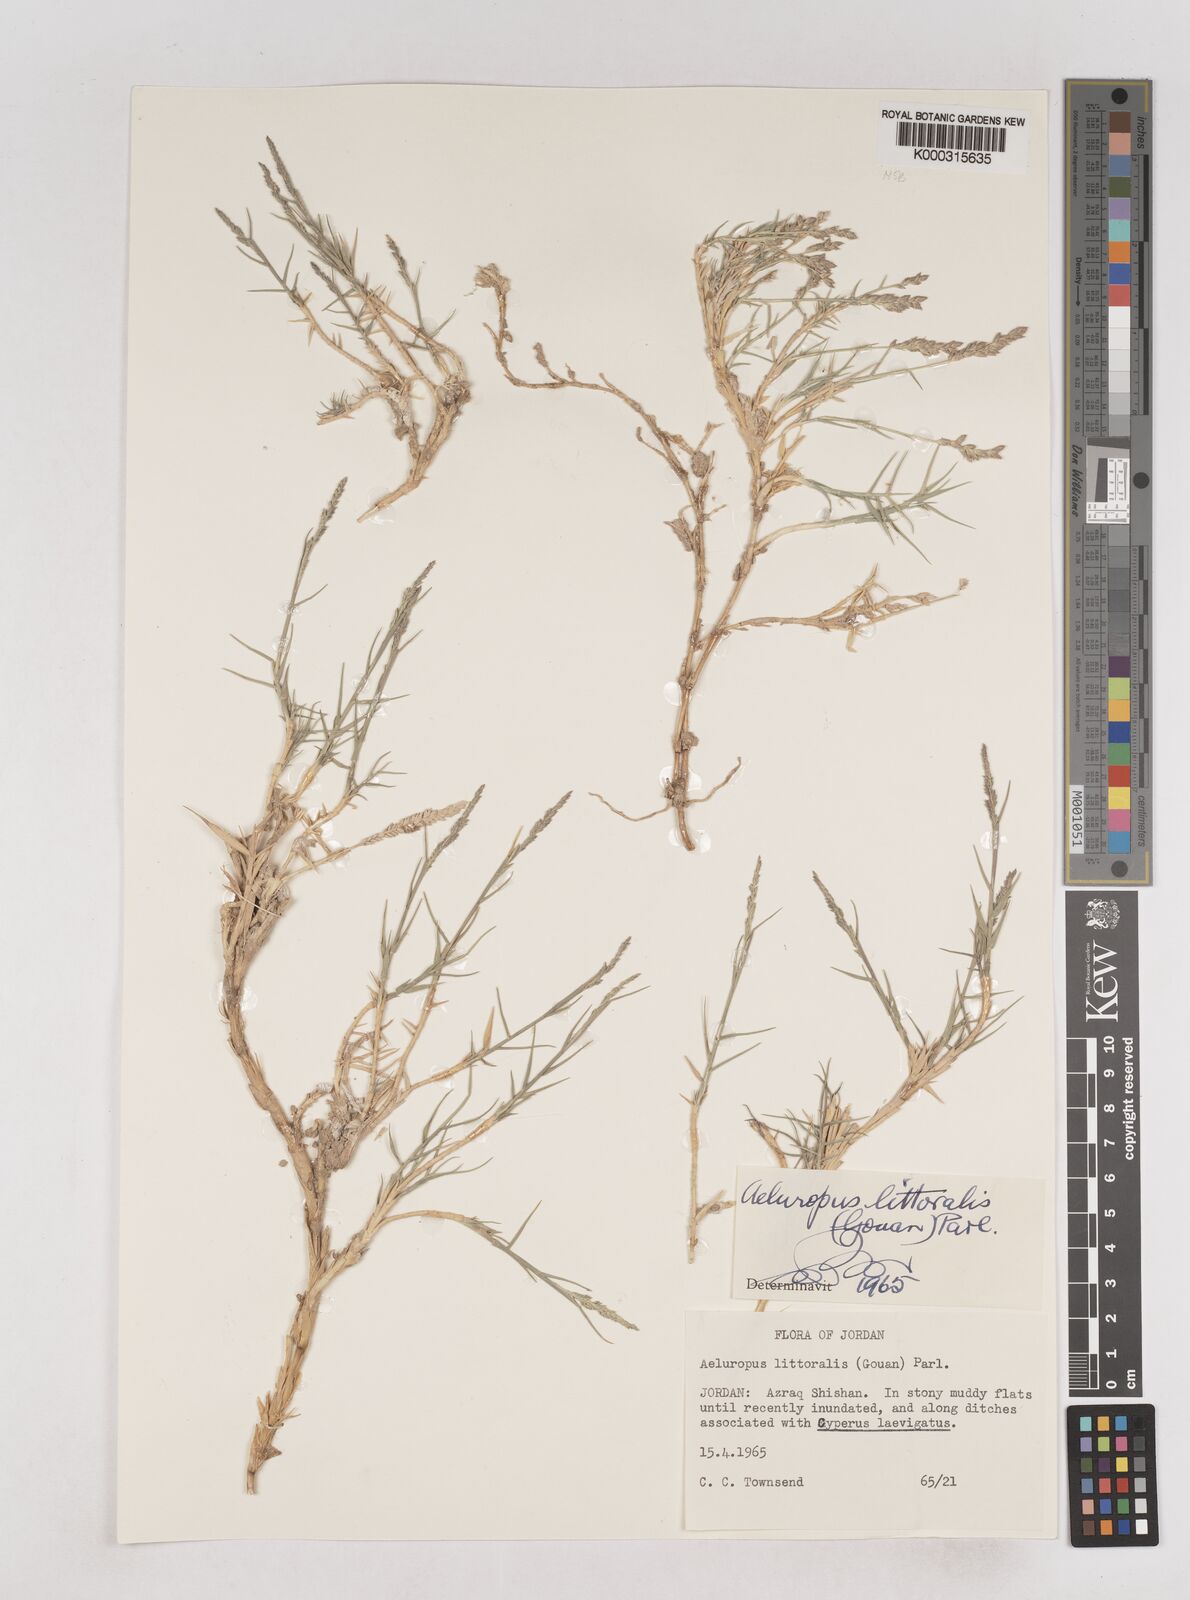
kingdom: Plantae
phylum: Tracheophyta
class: Liliopsida
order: Poales
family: Poaceae
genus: Aeluropus
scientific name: Aeluropus littoralis
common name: Indian walnut
